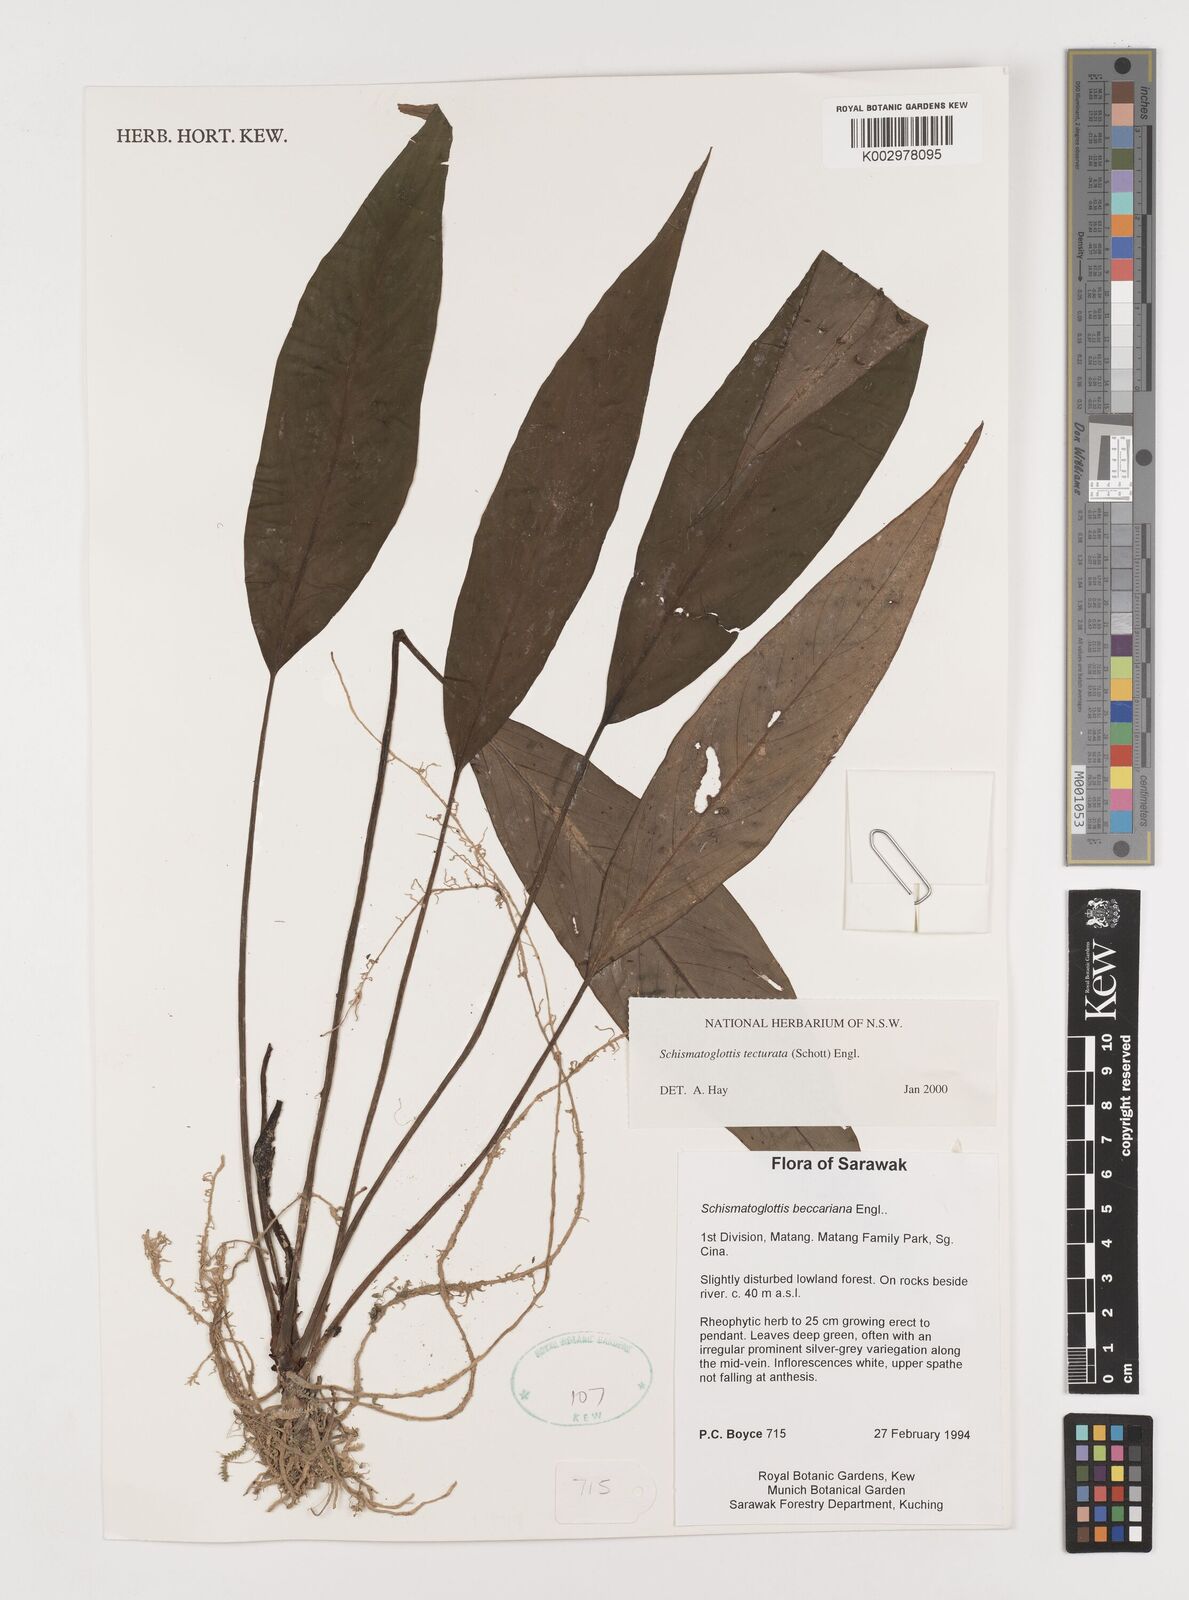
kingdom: Plantae
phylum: Tracheophyta
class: Liliopsida
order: Zingiberales
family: Costaceae
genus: Colobogynium
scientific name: Colobogynium variegatum
